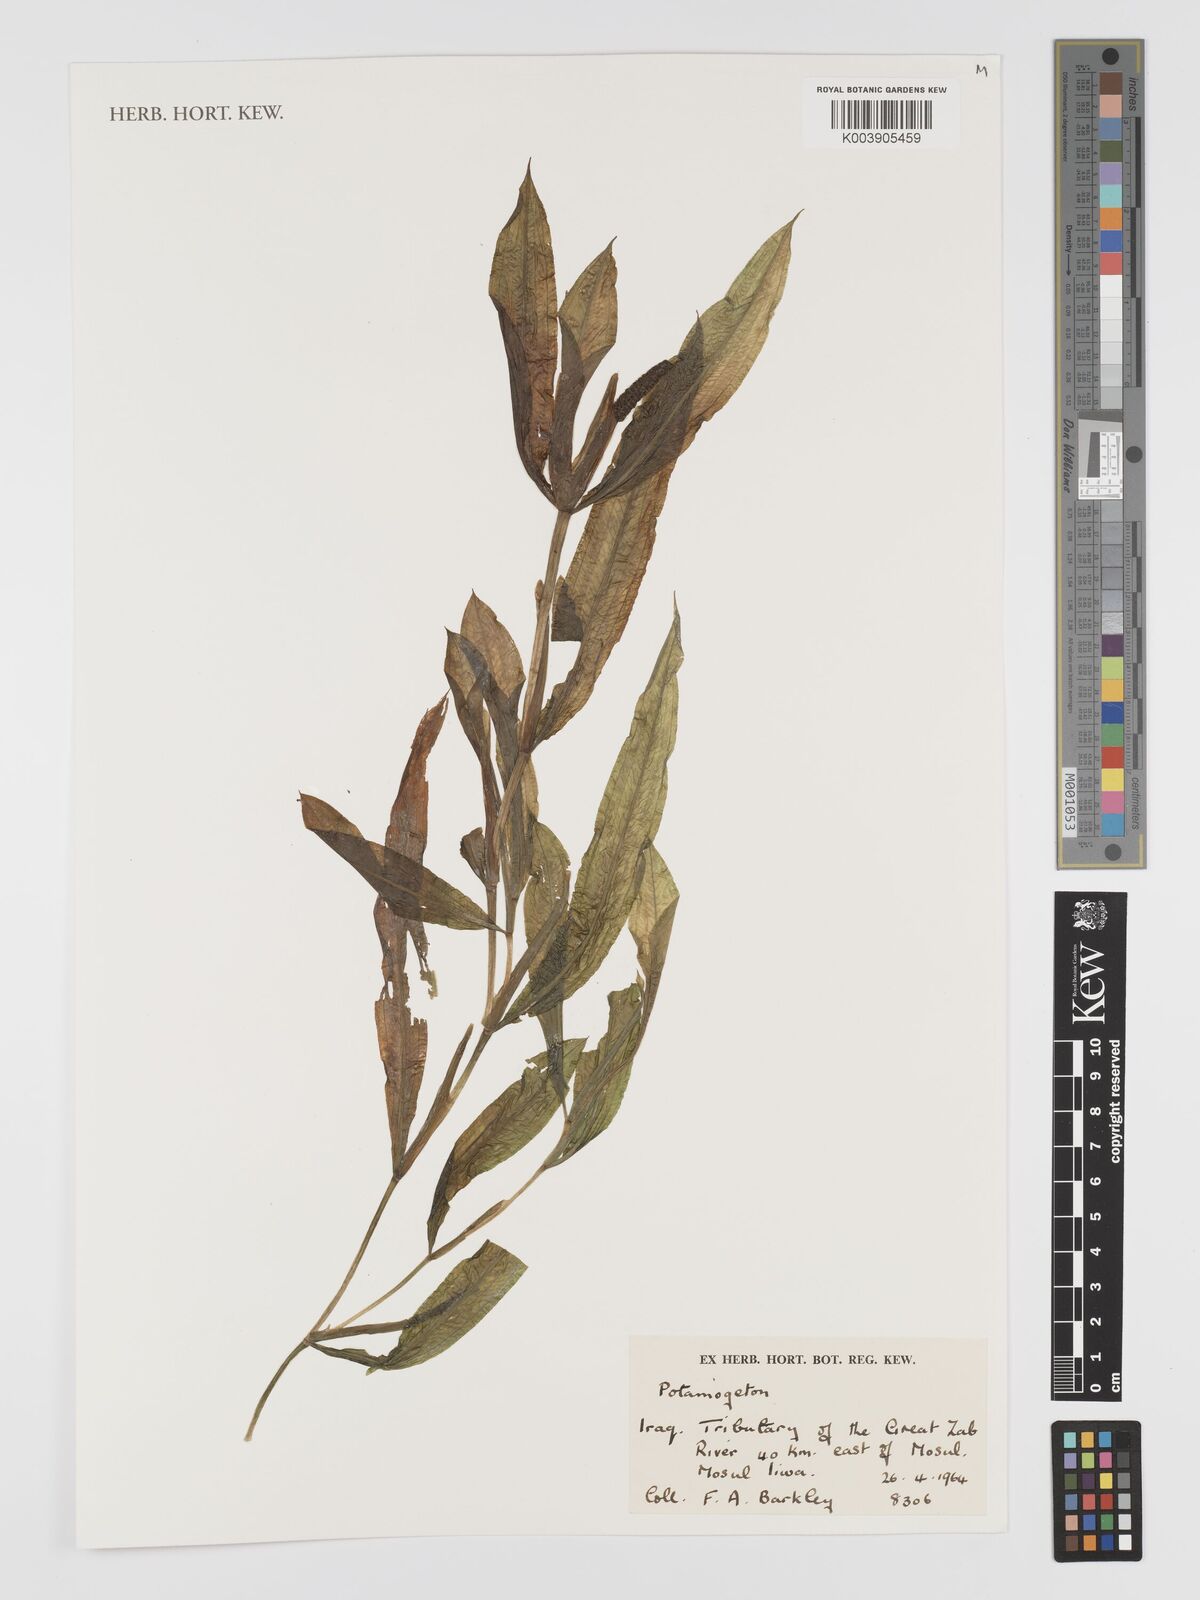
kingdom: Plantae
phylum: Tracheophyta
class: Liliopsida
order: Alismatales
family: Potamogetonaceae
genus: Potamogeton
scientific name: Potamogeton
